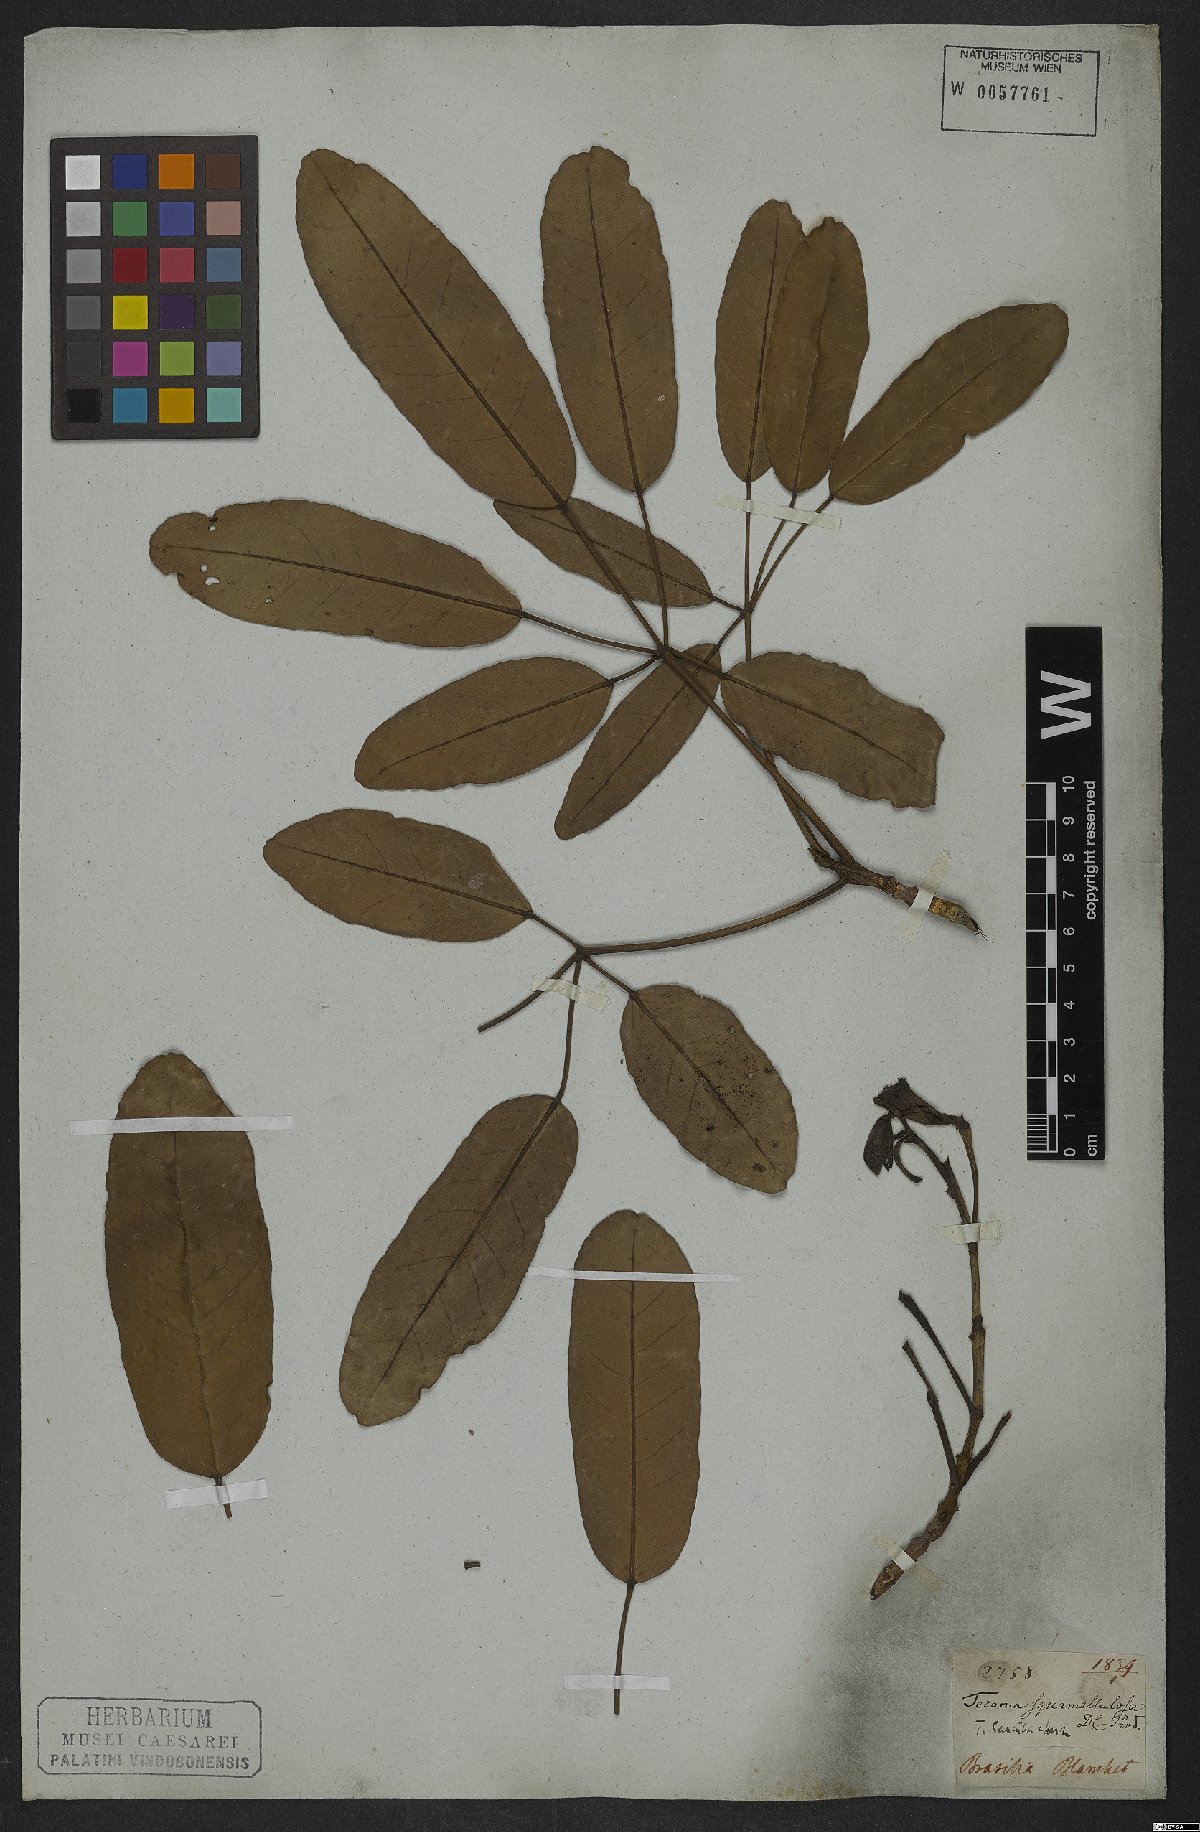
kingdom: Plantae
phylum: Tracheophyta
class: Magnoliopsida
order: Lamiales
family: Bignoniaceae
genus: Tabebuia
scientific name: Tabebuia aurea
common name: Caribbean trumpet-tree
